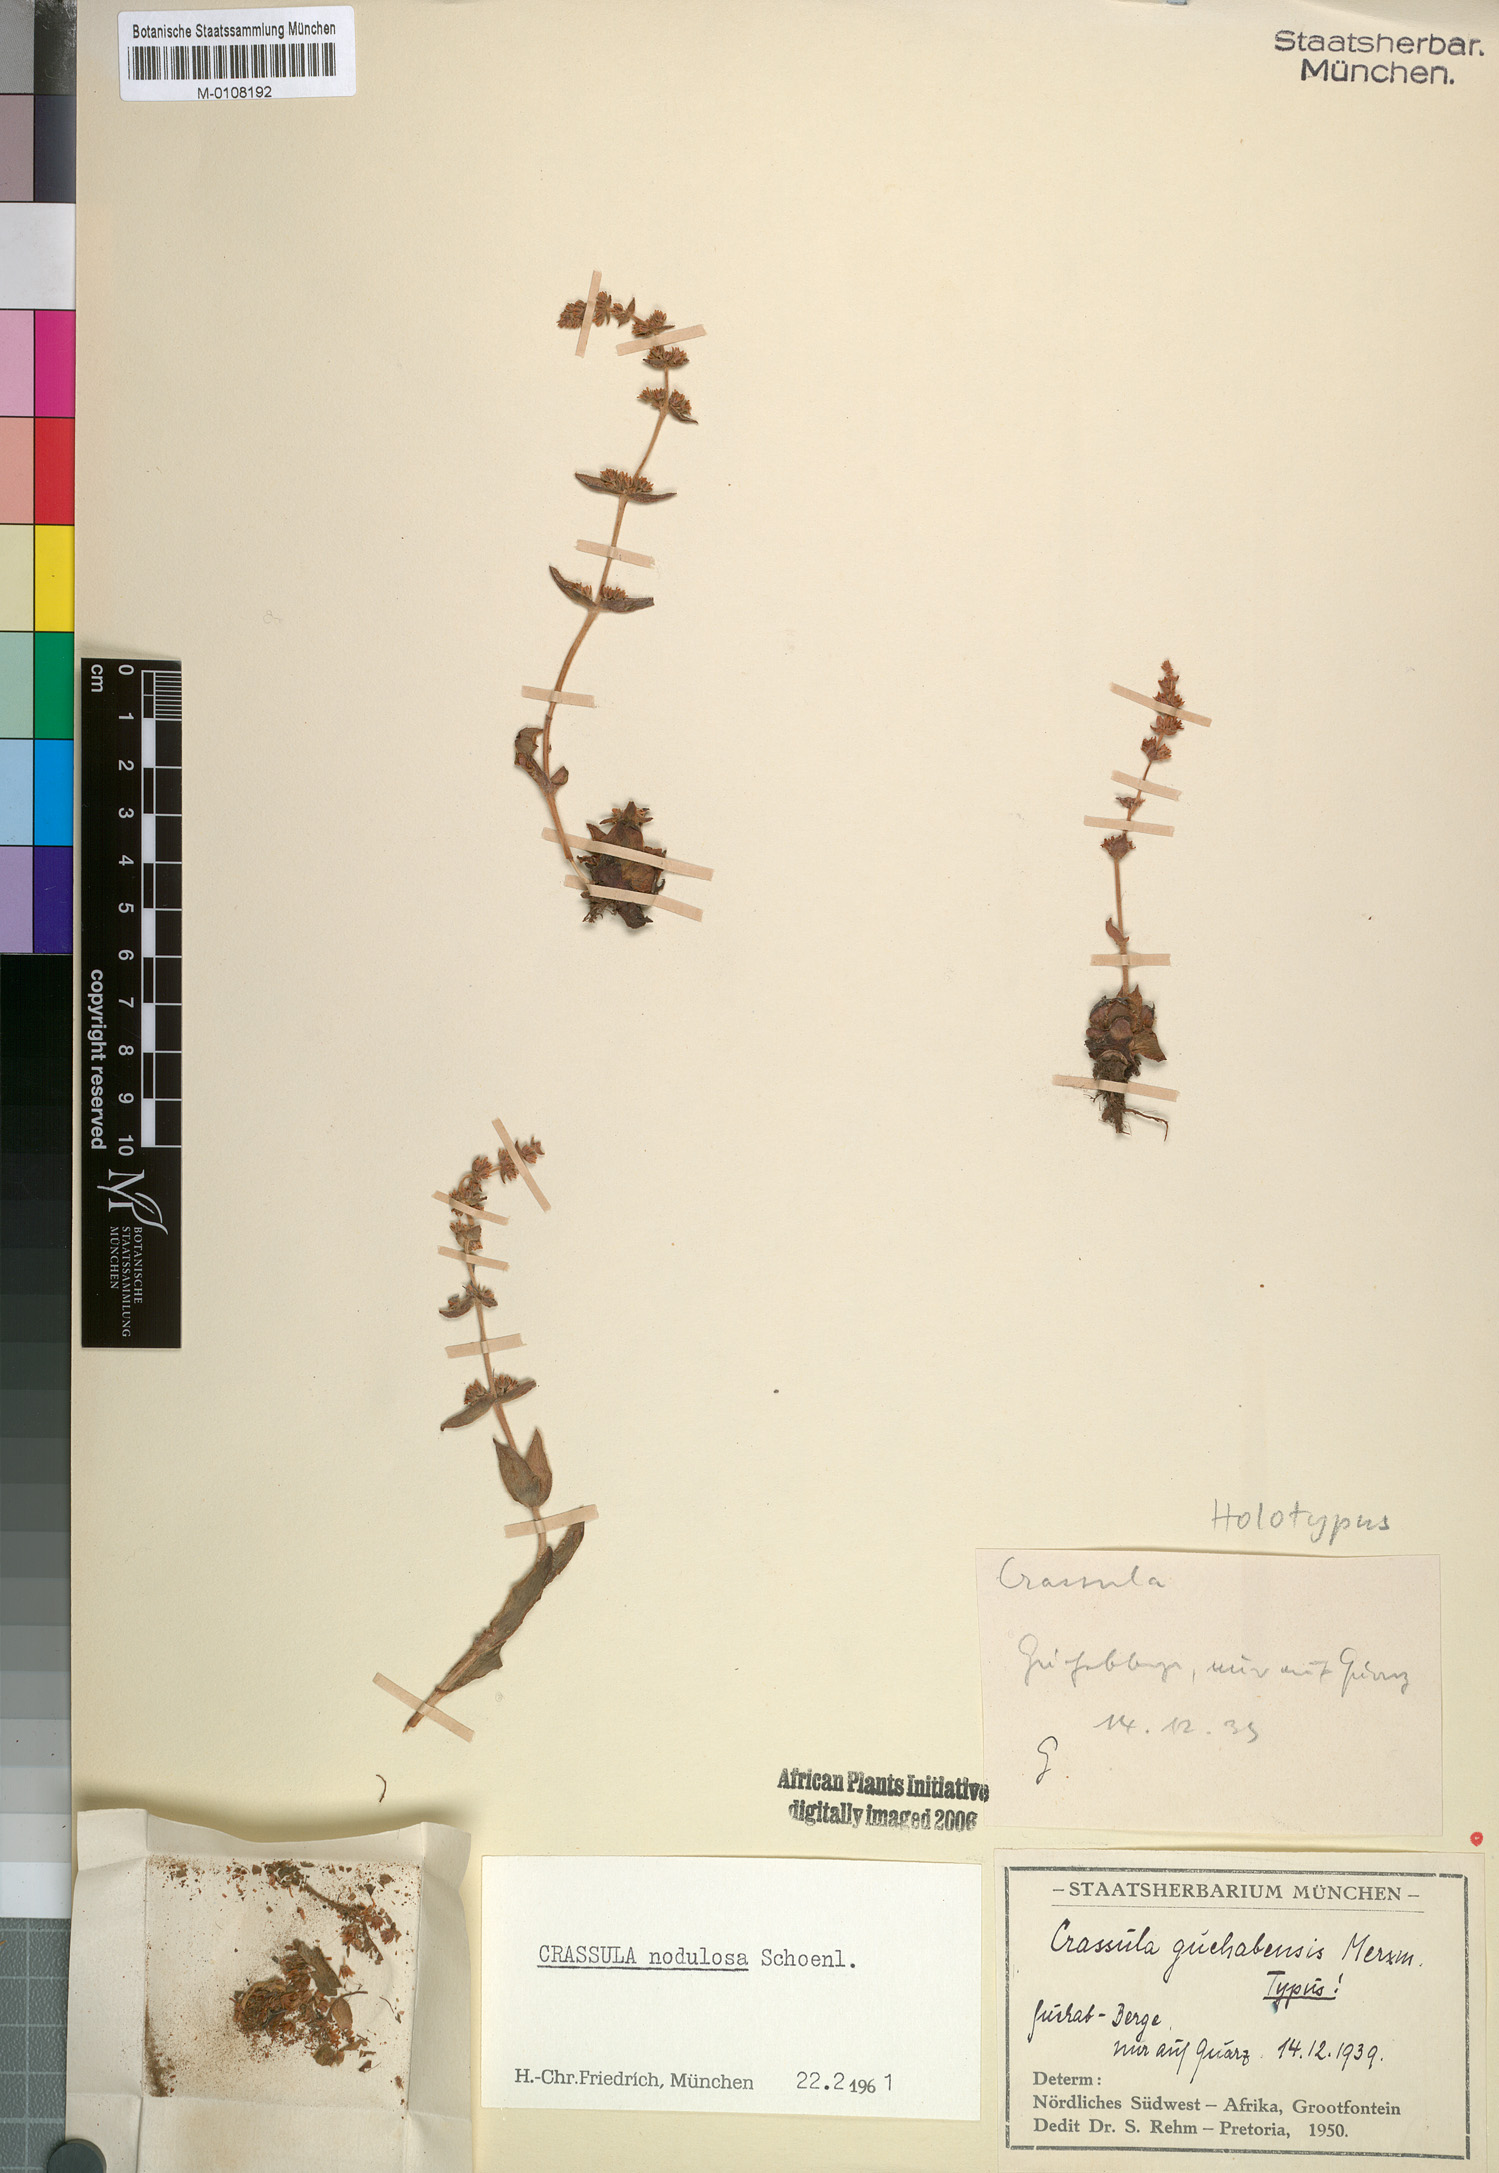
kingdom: Plantae
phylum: Tracheophyta
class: Magnoliopsida
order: Saxifragales
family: Crassulaceae
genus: Crassula
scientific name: Crassula nodulosa
